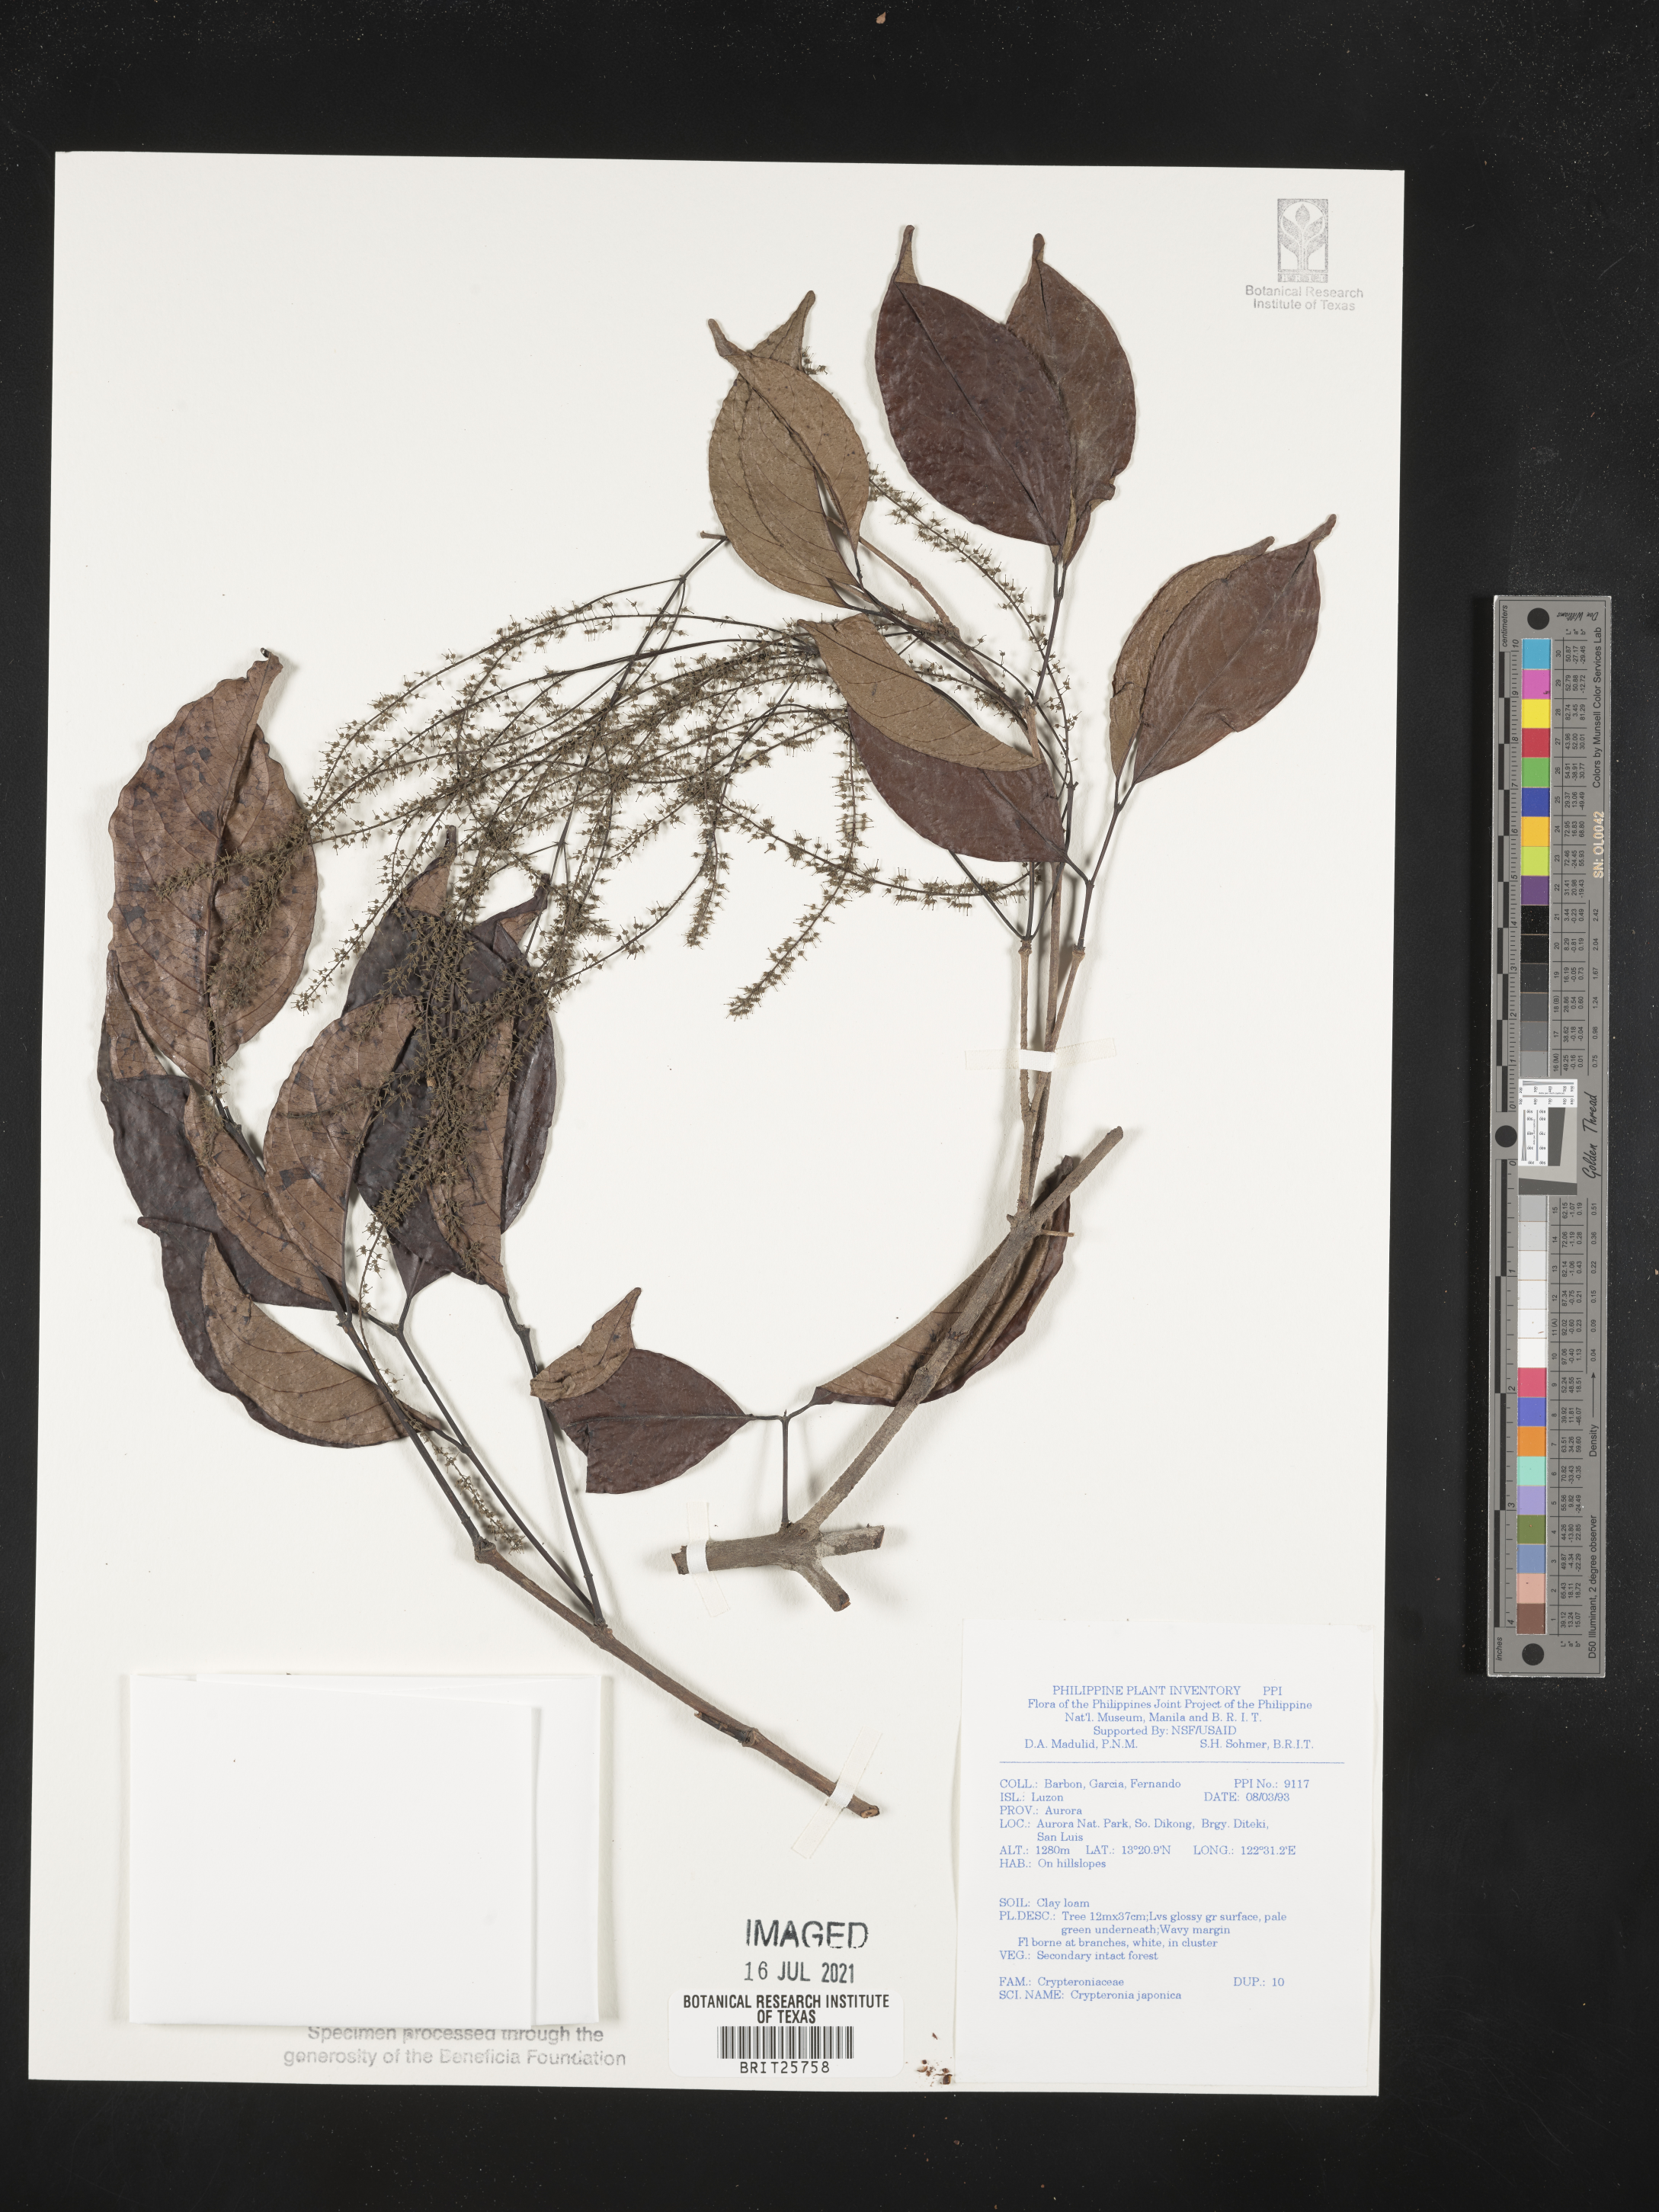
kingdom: Plantae
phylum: Tracheophyta
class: Magnoliopsida
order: Myrtales
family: Crypteroniaceae
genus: Crypteronia
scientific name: Crypteronia
